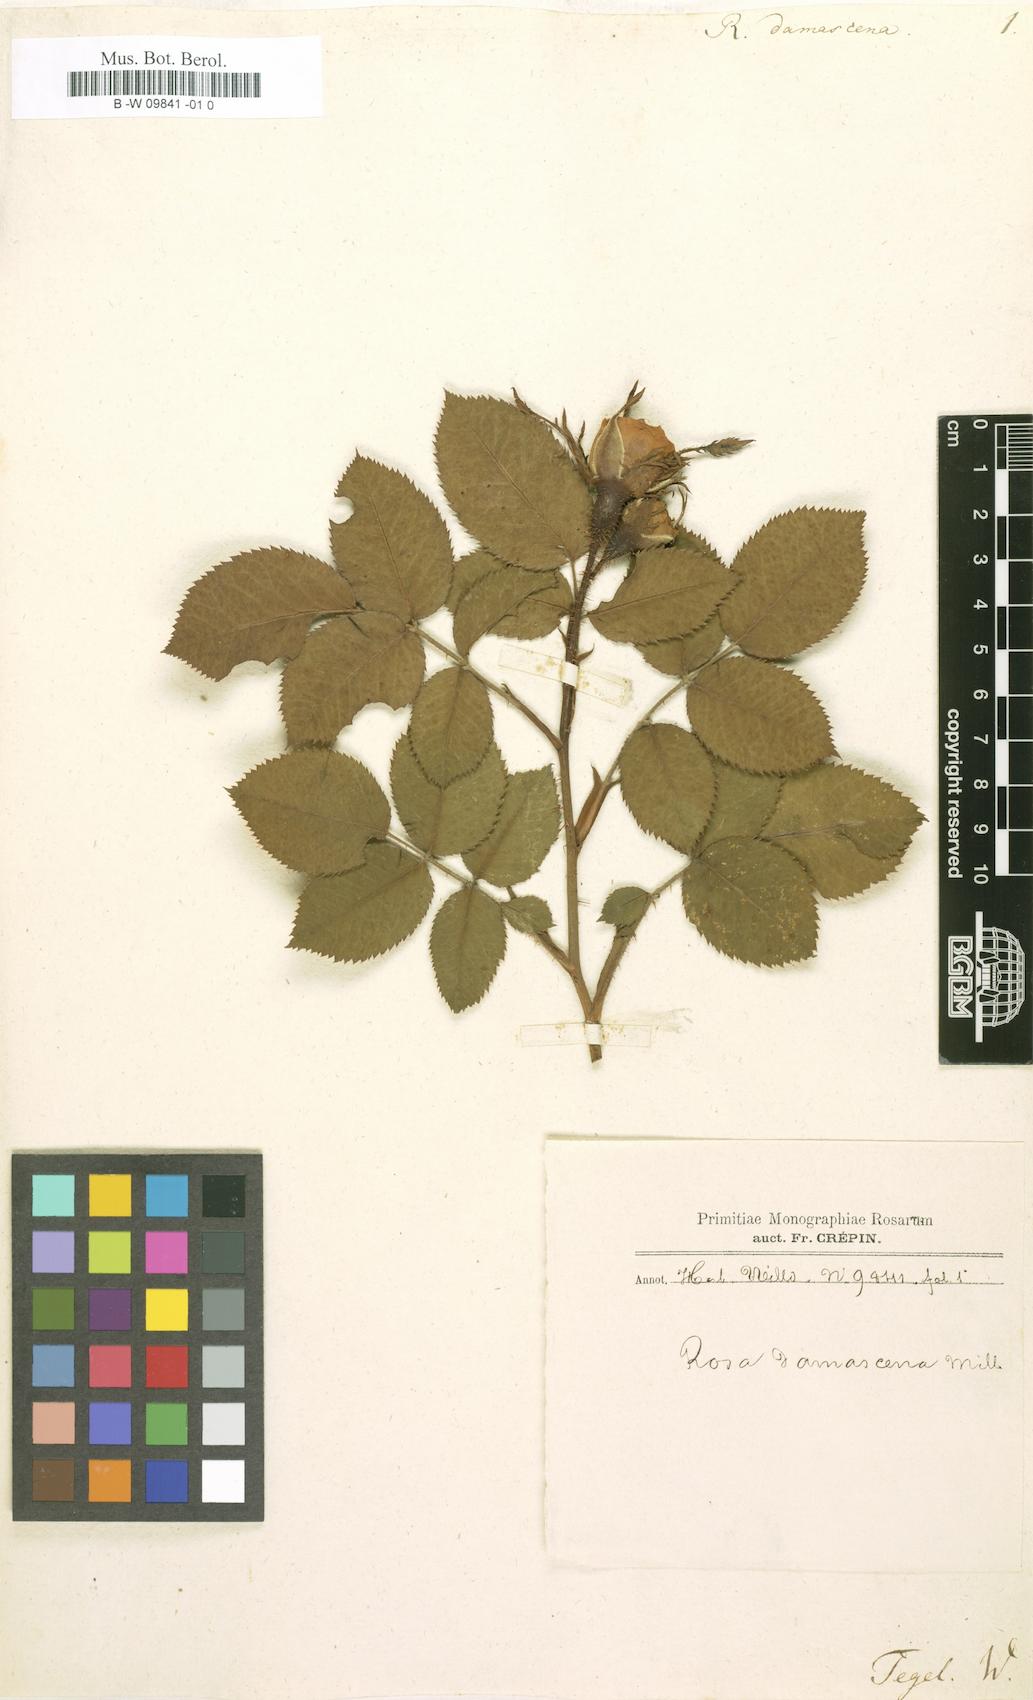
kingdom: Plantae
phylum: Tracheophyta
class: Magnoliopsida
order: Rosales
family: Rosaceae
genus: Rosa
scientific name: Rosa damascena
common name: Damask rose
